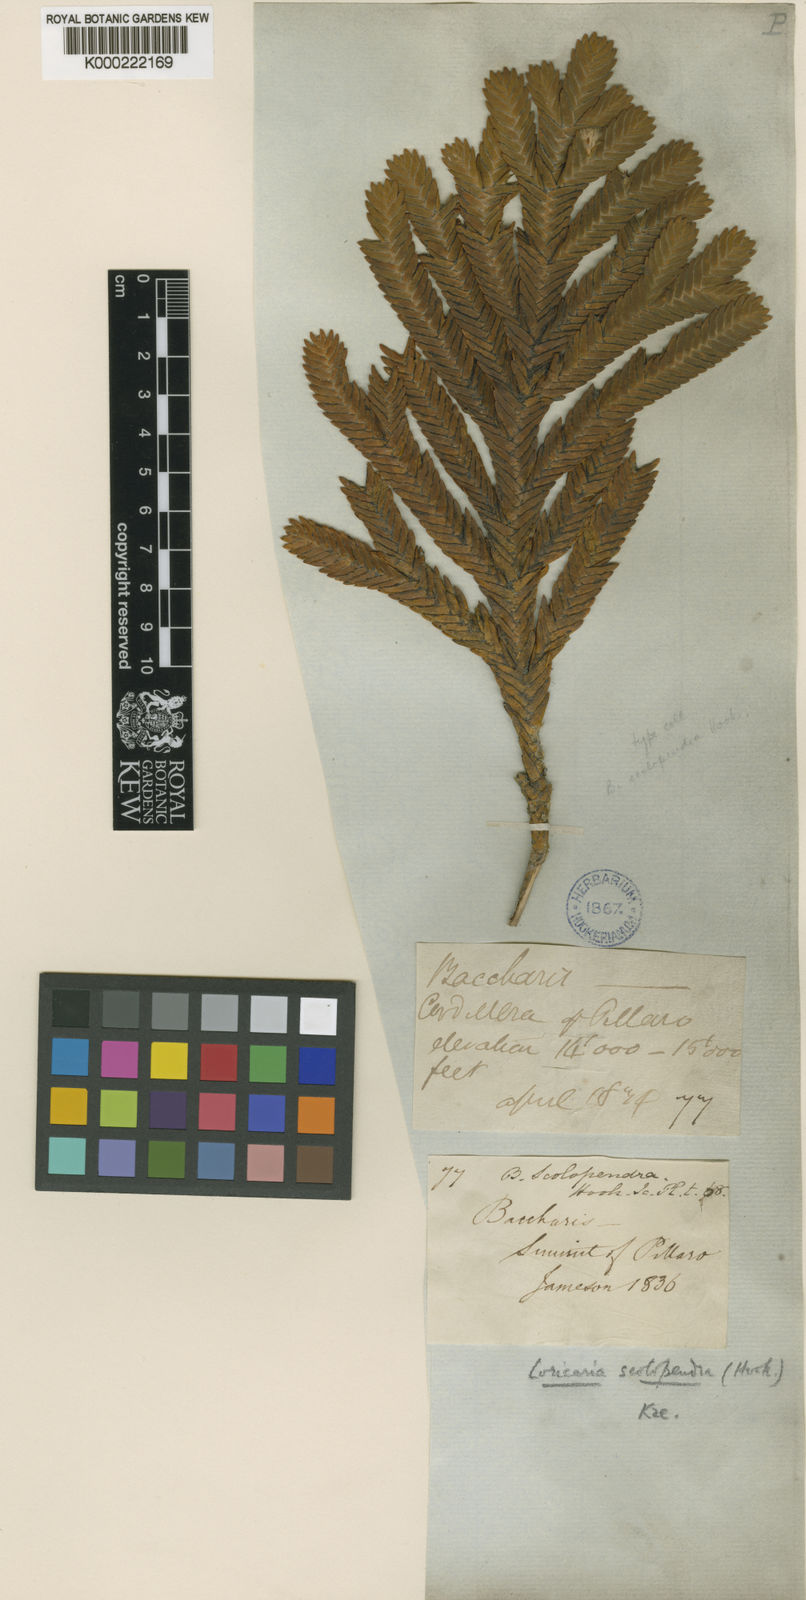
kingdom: Plantae
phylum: Tracheophyta
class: Magnoliopsida
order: Asterales
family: Asteraceae
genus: Andicolea
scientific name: Andicolea scolopendra
